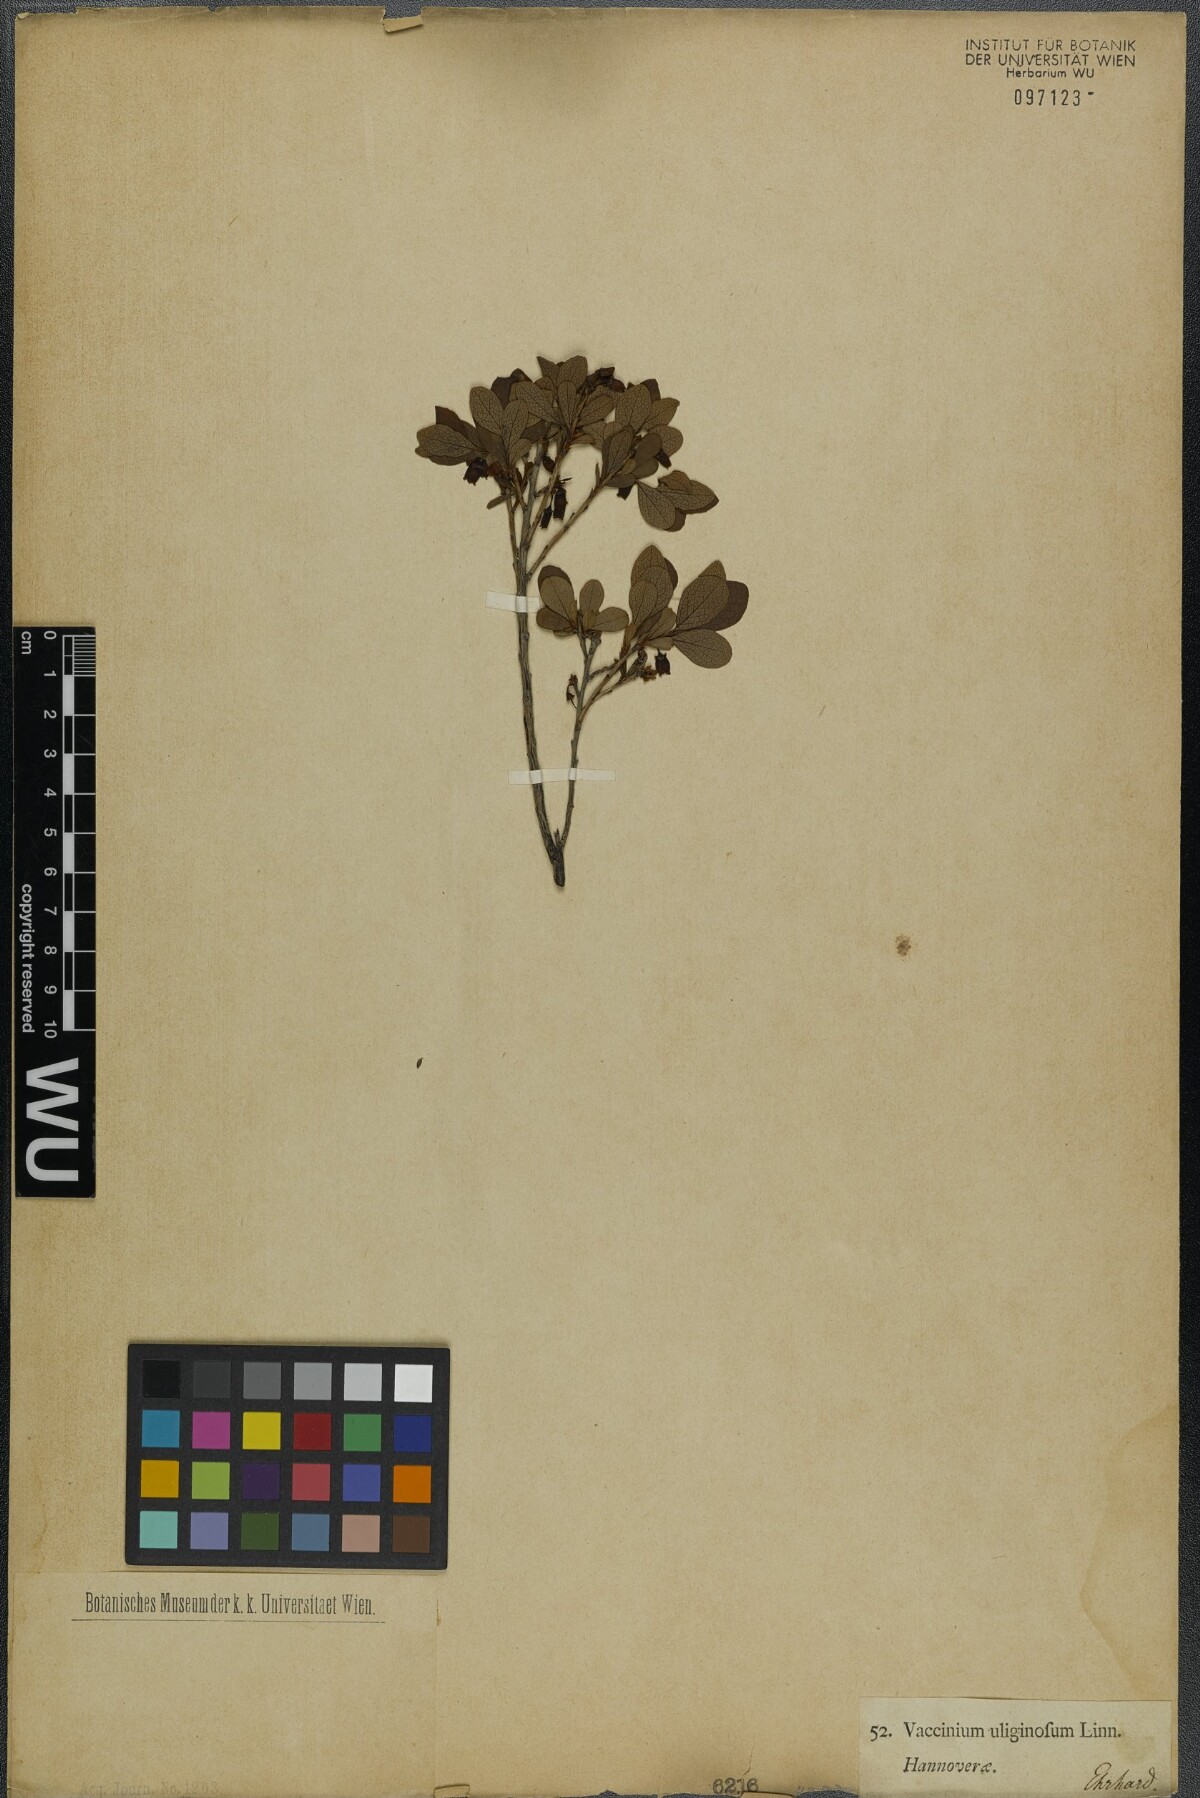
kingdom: Plantae
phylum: Tracheophyta
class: Magnoliopsida
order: Ericales
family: Ericaceae
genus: Vaccinium
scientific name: Vaccinium uliginosum
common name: Bog bilberry
